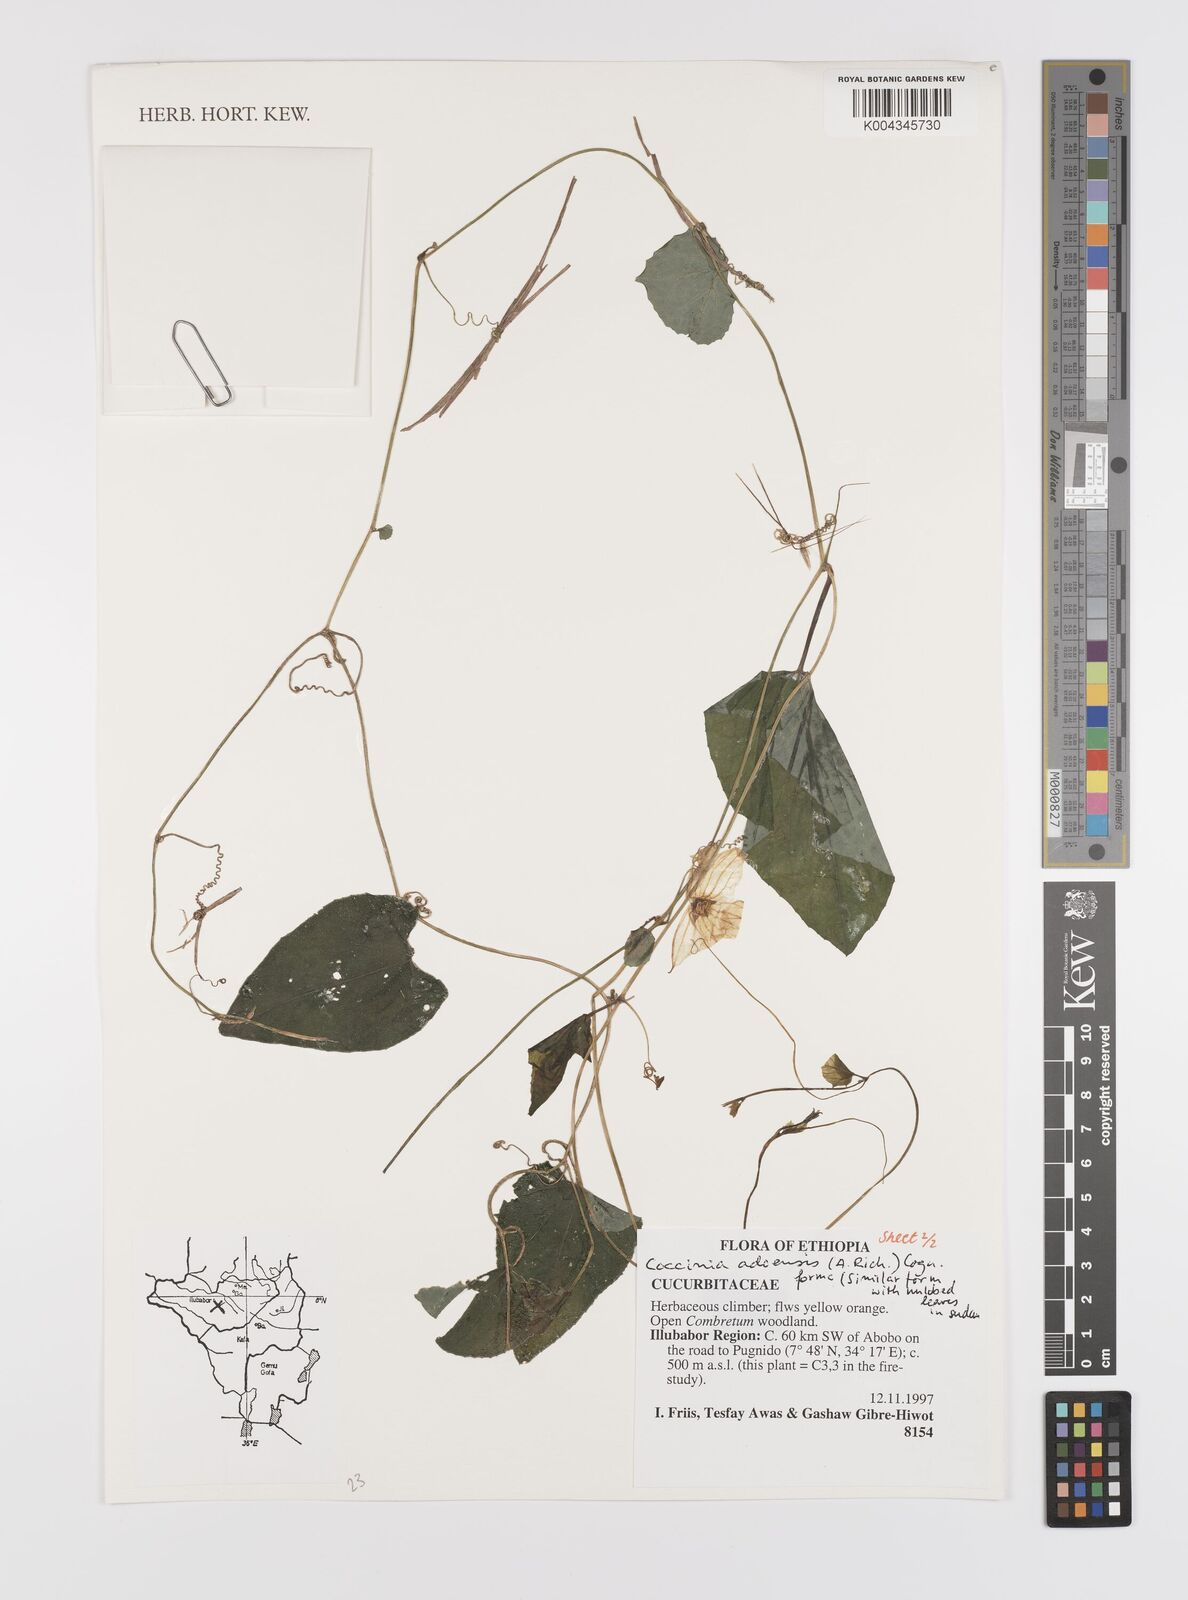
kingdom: Plantae
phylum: Tracheophyta
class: Magnoliopsida
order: Cucurbitales
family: Cucurbitaceae
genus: Coccinia
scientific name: Coccinia adoensis
